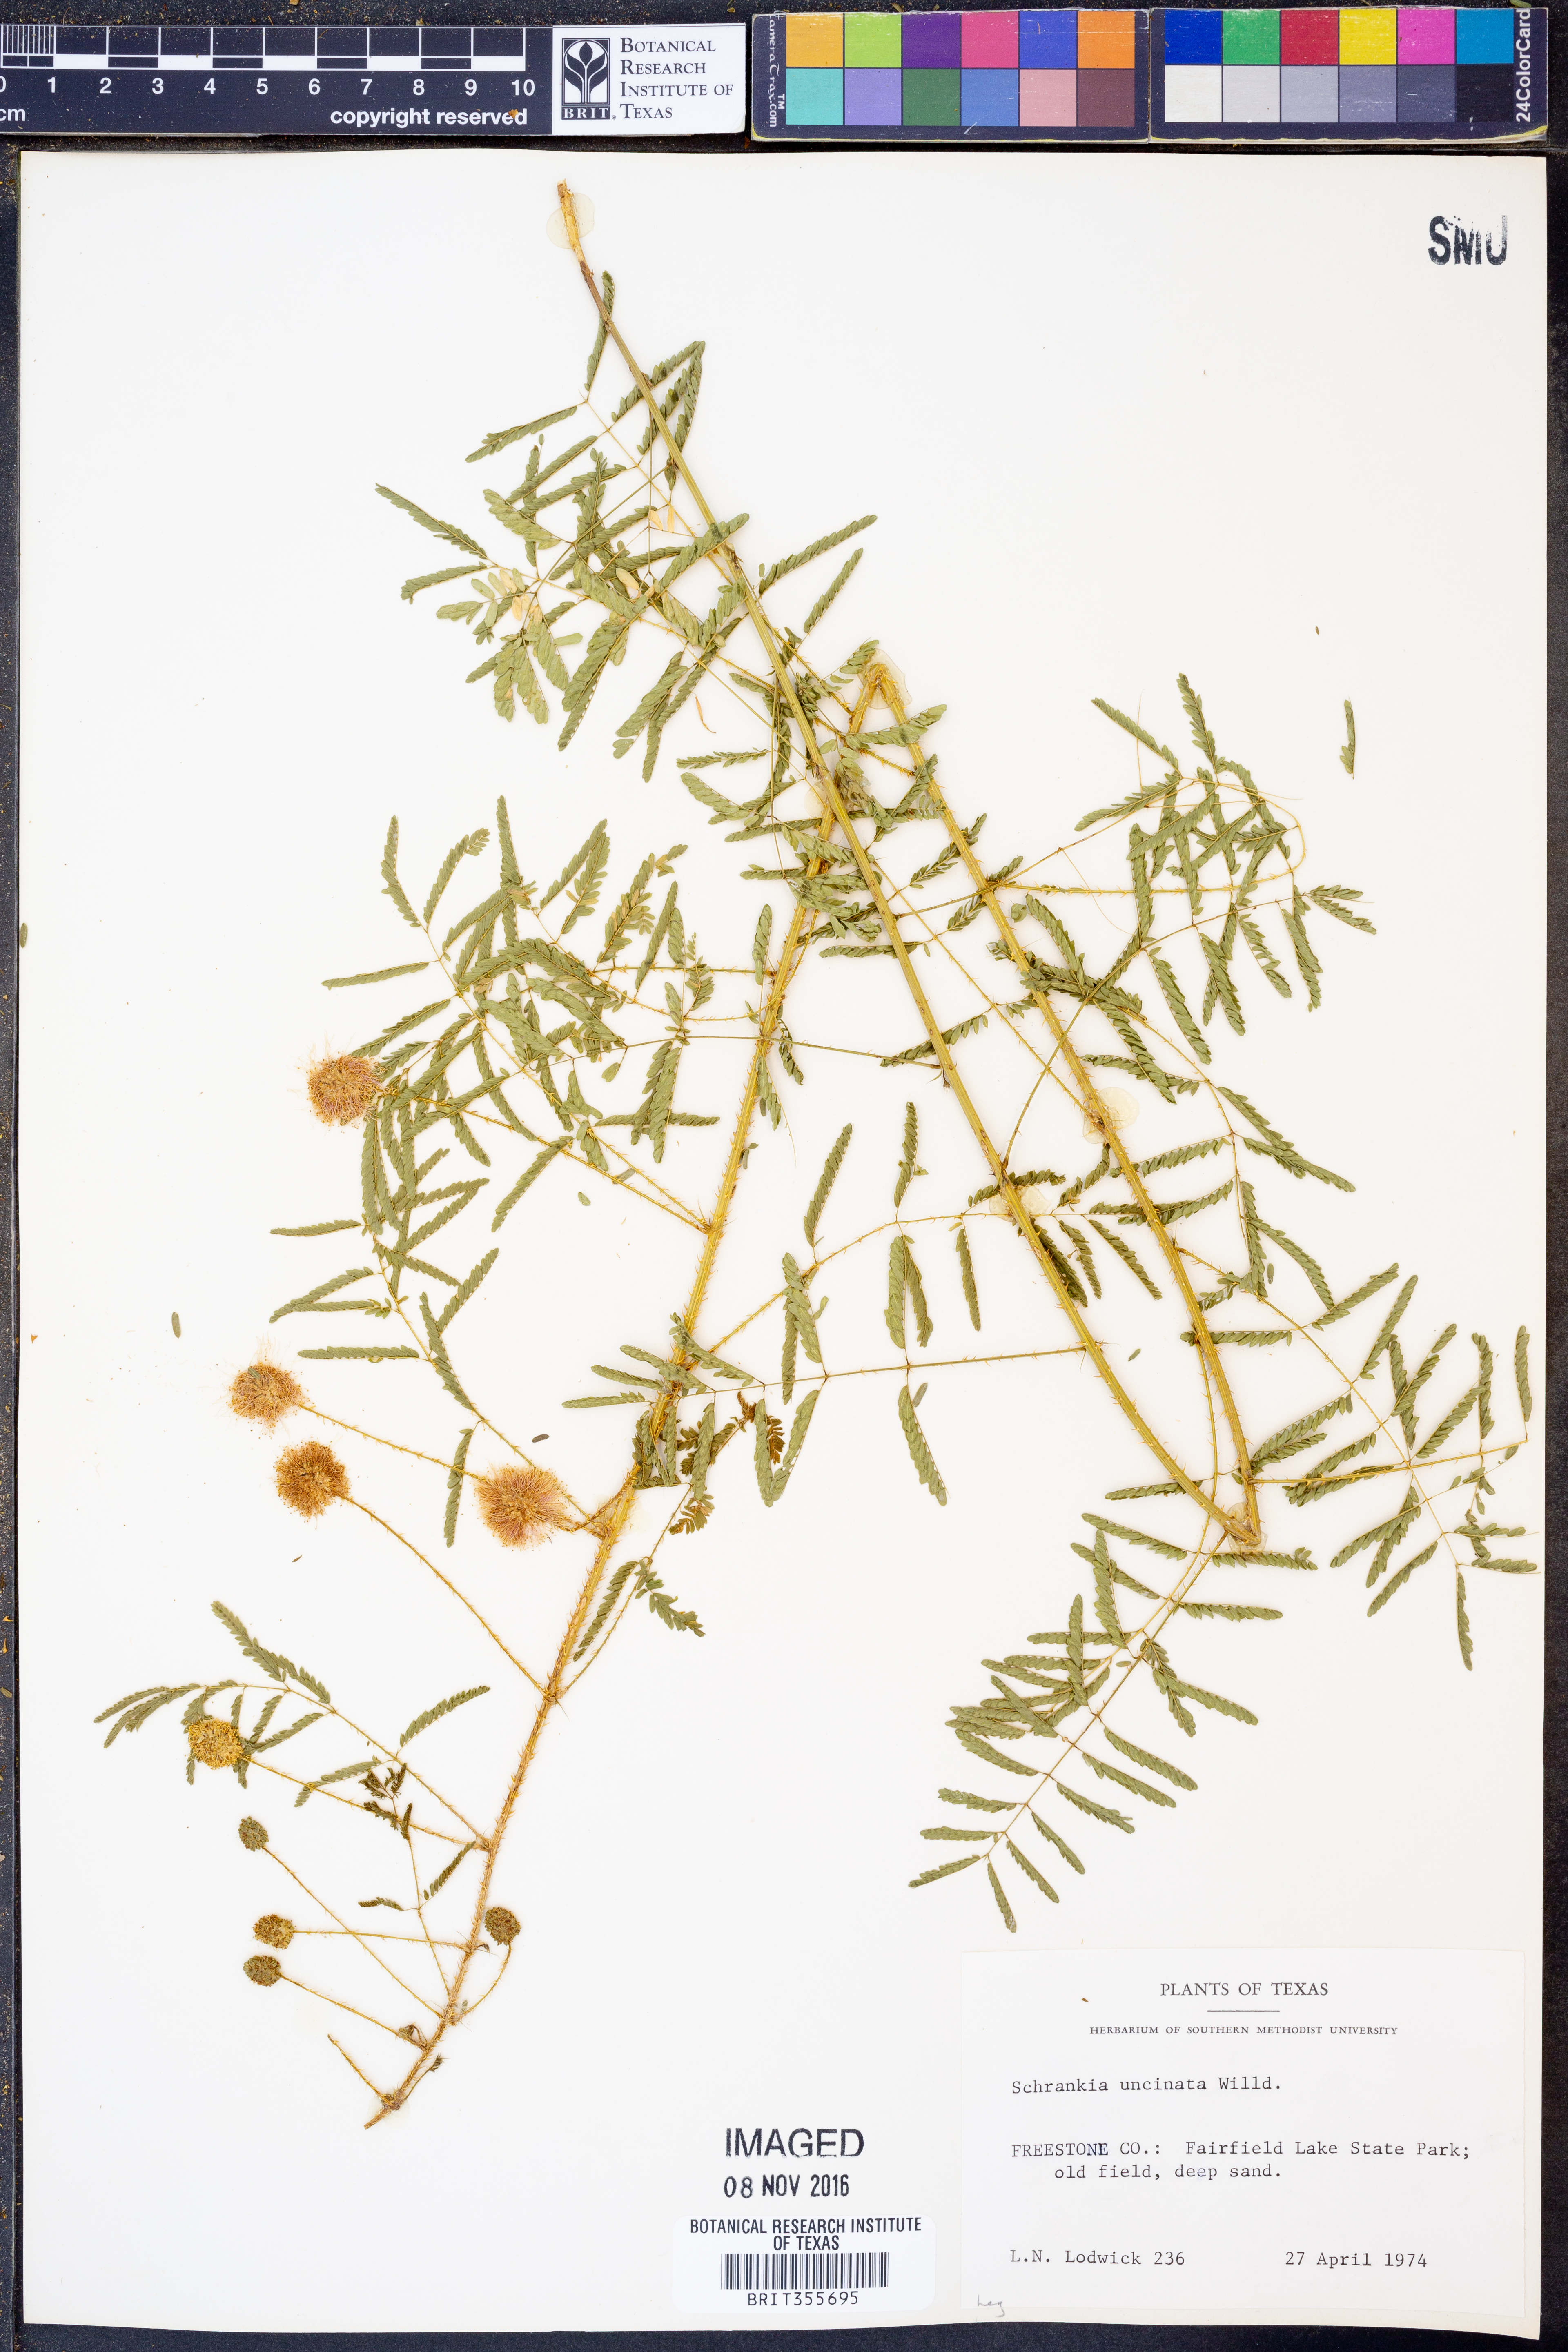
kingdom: Plantae
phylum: Tracheophyta
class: Magnoliopsida
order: Fabales
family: Fabaceae
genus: Mimosa
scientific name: Mimosa quadrivalvis
